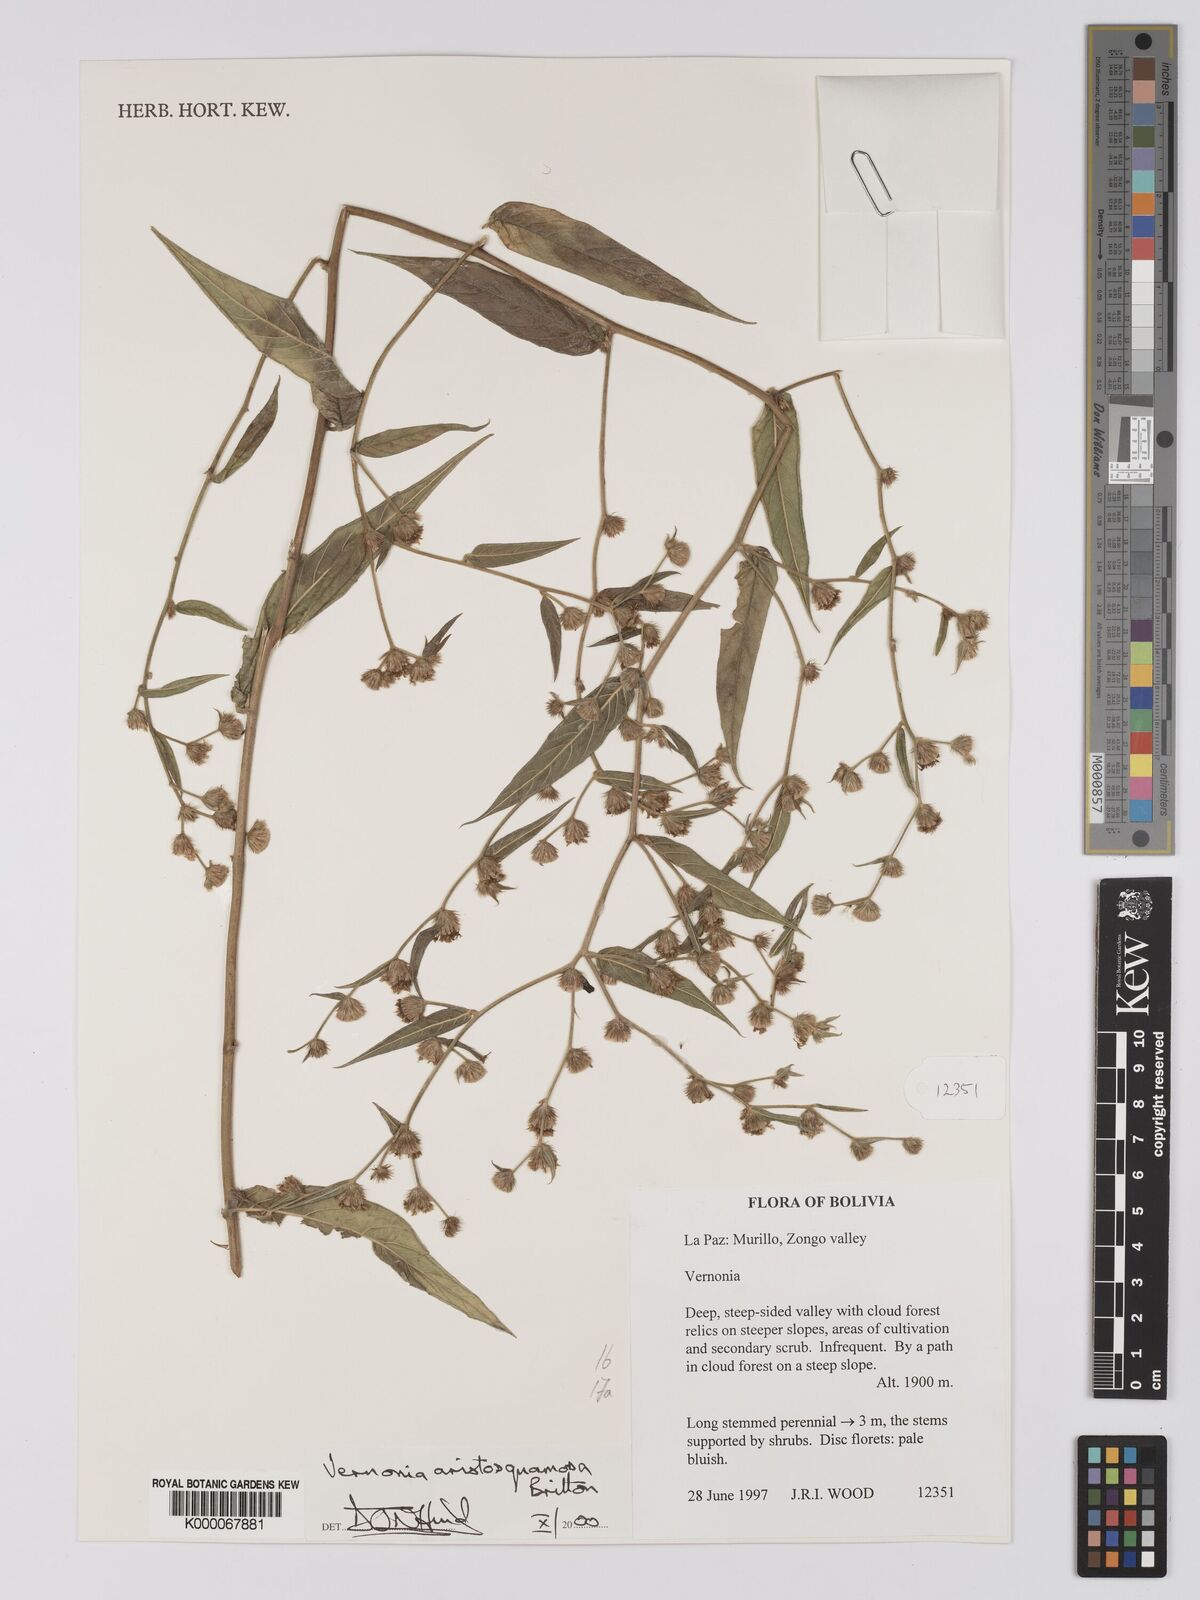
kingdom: Plantae
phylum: Tracheophyta
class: Magnoliopsida
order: Asterales
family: Asteraceae
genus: Lepidaploa
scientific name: Lepidaploa aristosquamosa
